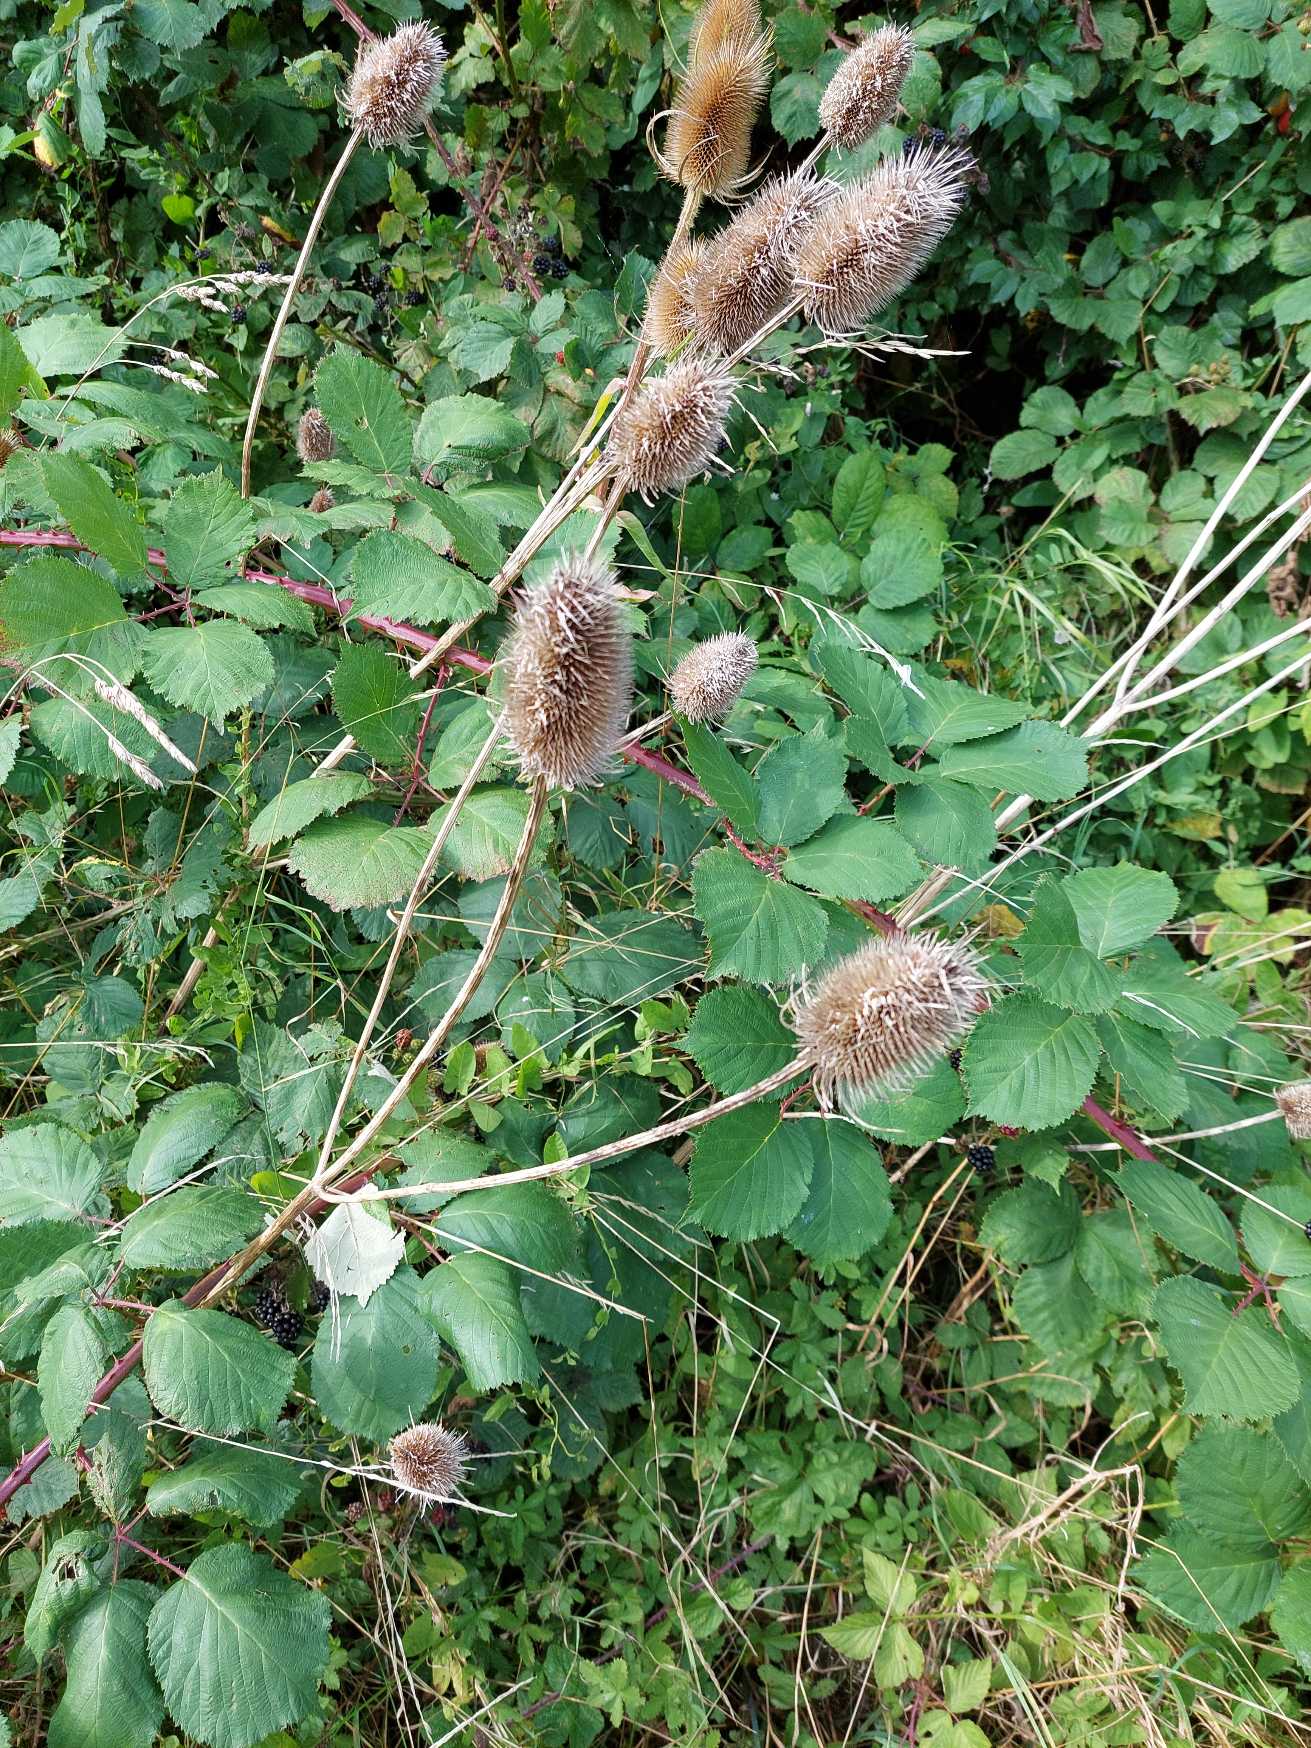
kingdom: Plantae
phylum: Tracheophyta
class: Magnoliopsida
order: Dipsacales
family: Caprifoliaceae
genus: Dipsacus
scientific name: Dipsacus fullonum
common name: Gærde-kartebolle
